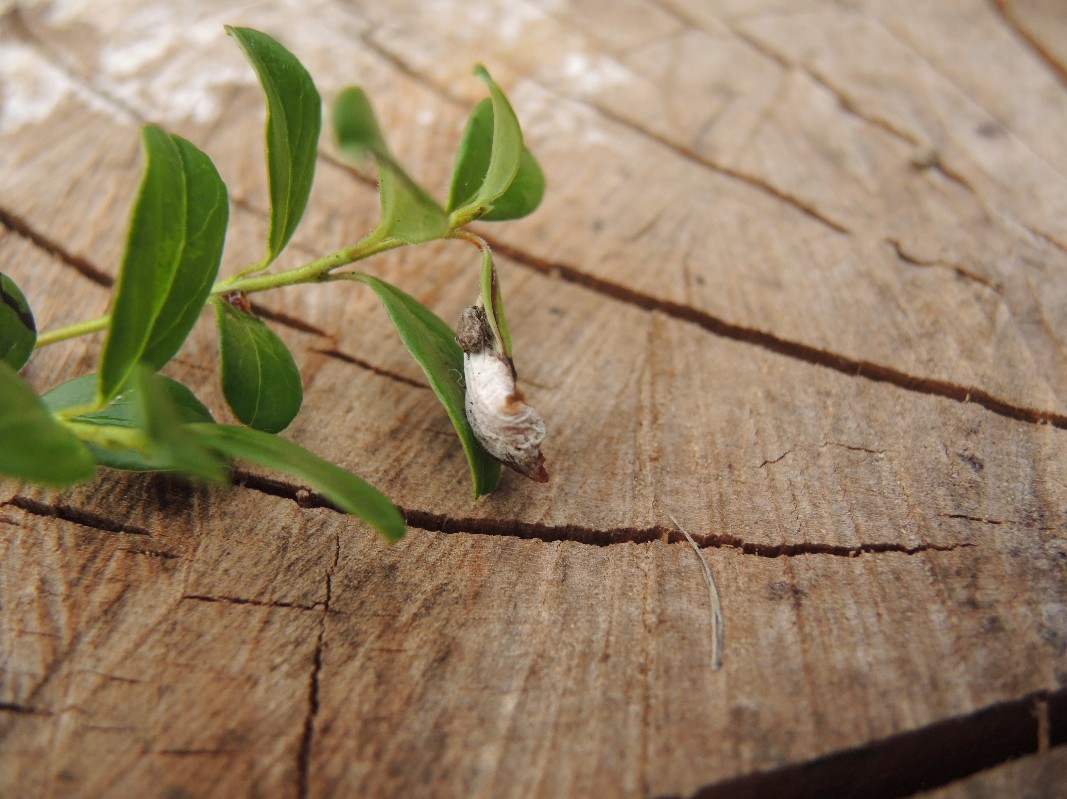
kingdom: Fungi
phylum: Basidiomycota
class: Exobasidiomycetes
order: Exobasidiales
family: Exobasidiaceae
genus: Exobasidium
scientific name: Exobasidium vaccinii
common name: tyttebærblad-bøllesvamp
